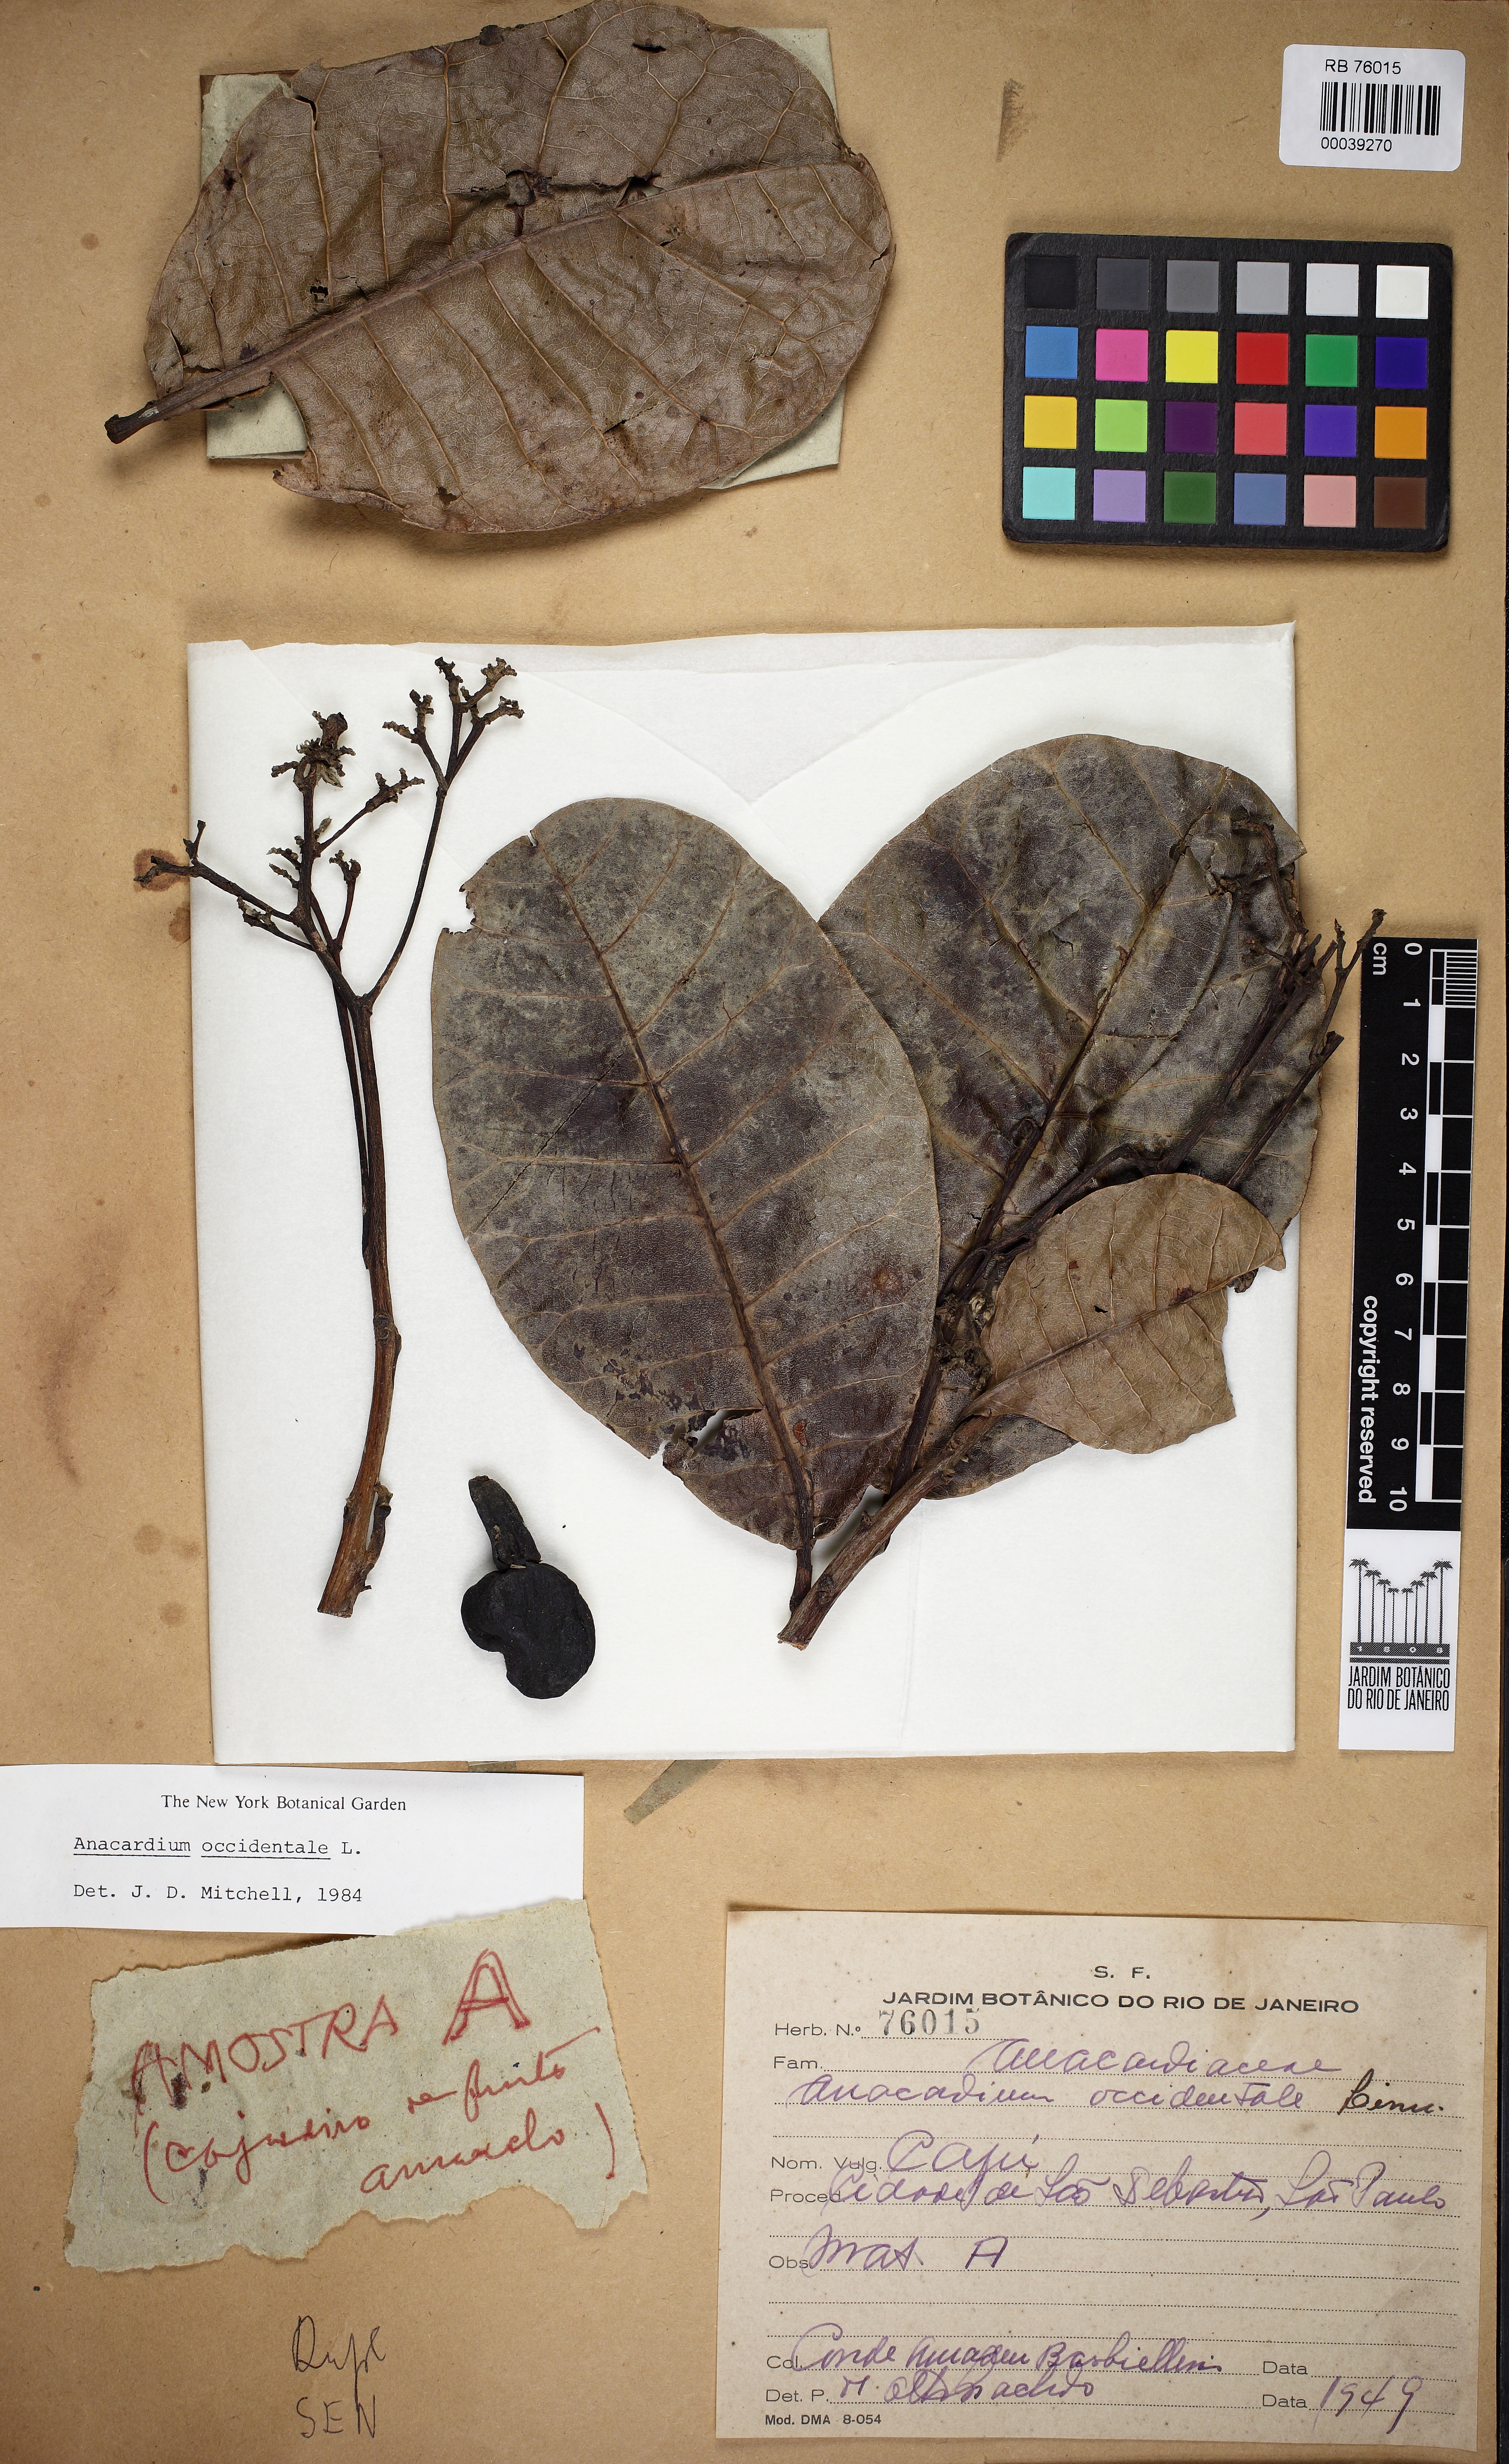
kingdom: Plantae
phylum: Tracheophyta
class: Magnoliopsida
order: Sapindales
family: Anacardiaceae
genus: Anacardium
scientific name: Anacardium occidentale
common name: Cashew
